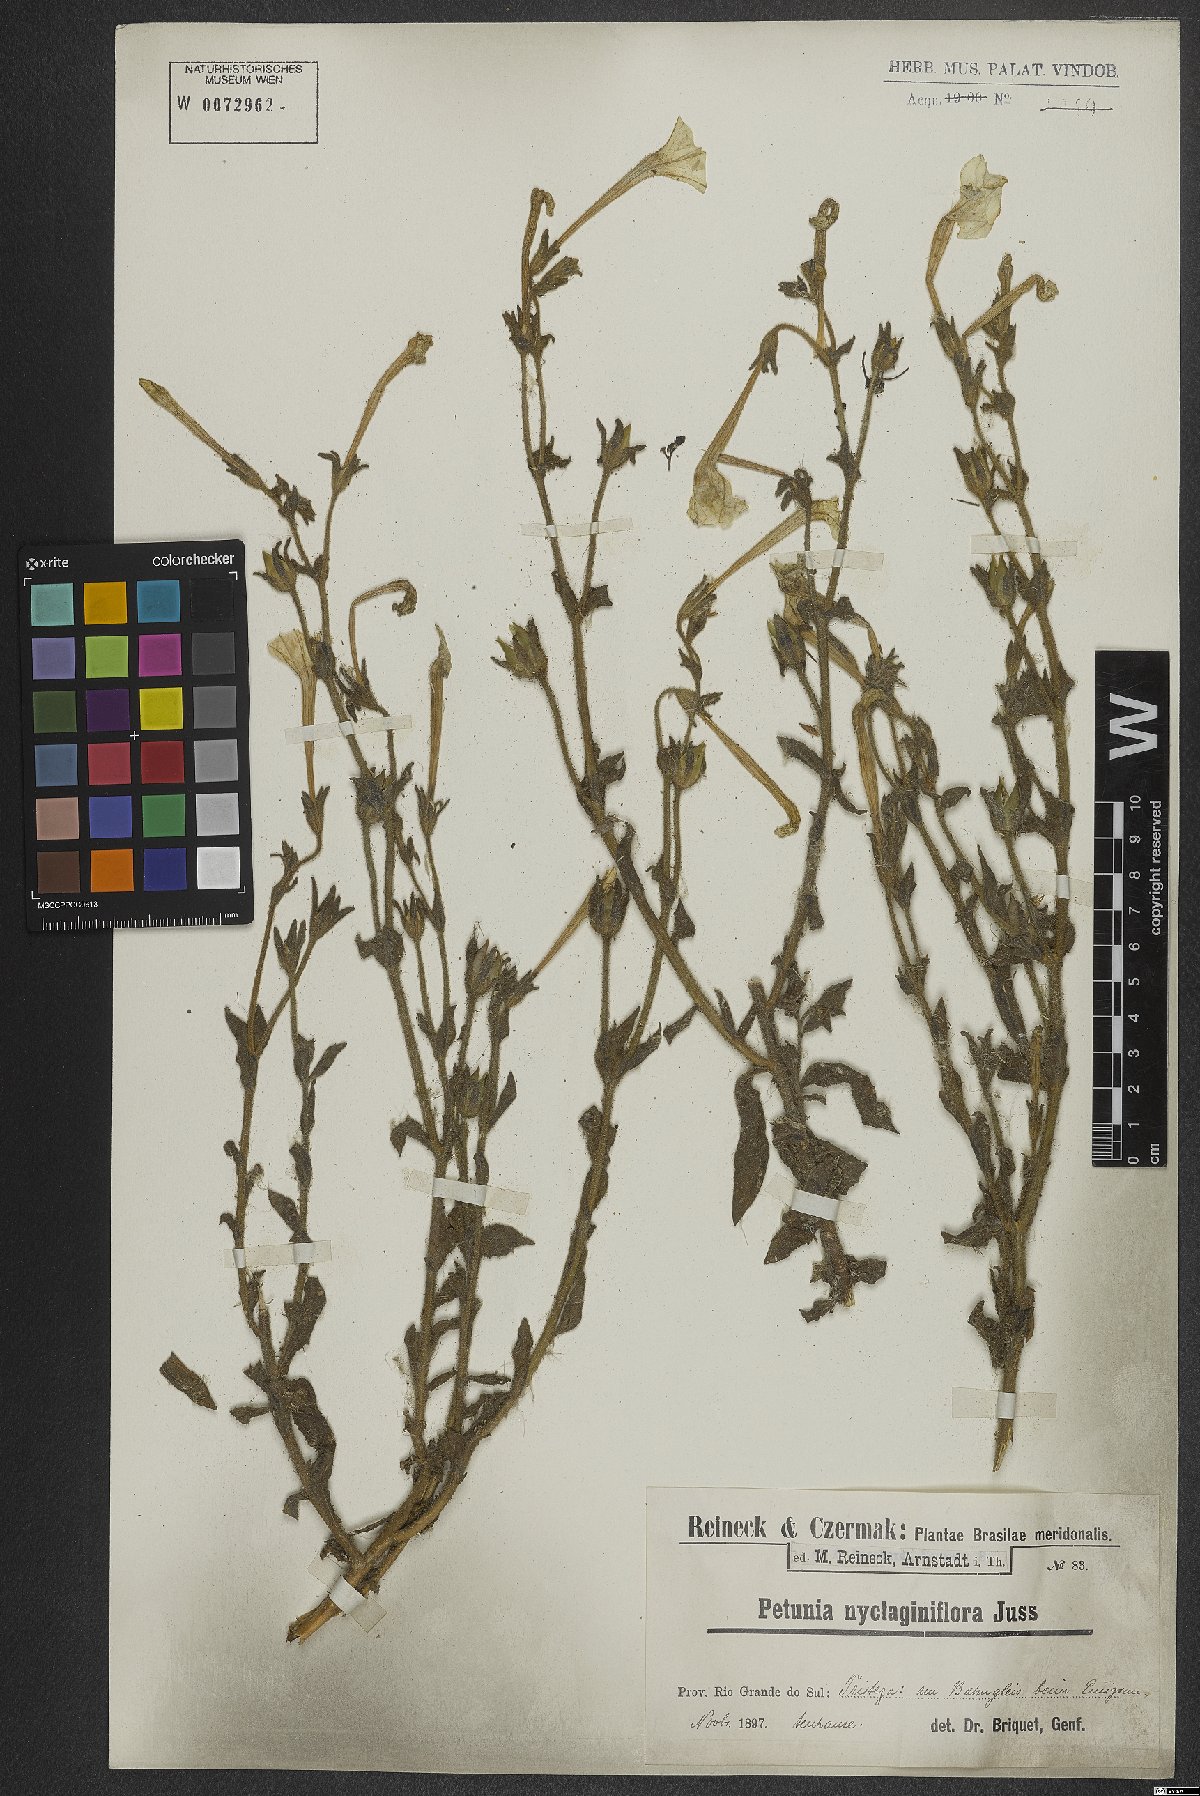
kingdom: Plantae
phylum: Tracheophyta
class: Magnoliopsida
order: Solanales
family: Solanaceae
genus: Petunia
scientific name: Petunia axillaris
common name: Large white petunia
